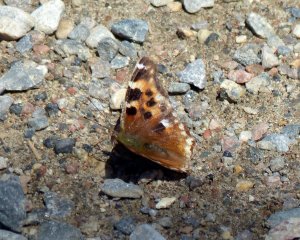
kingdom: Animalia
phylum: Arthropoda
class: Insecta
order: Lepidoptera
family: Nymphalidae
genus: Polygonia
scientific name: Polygonia vaualbum
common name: Compton Tortoiseshell
